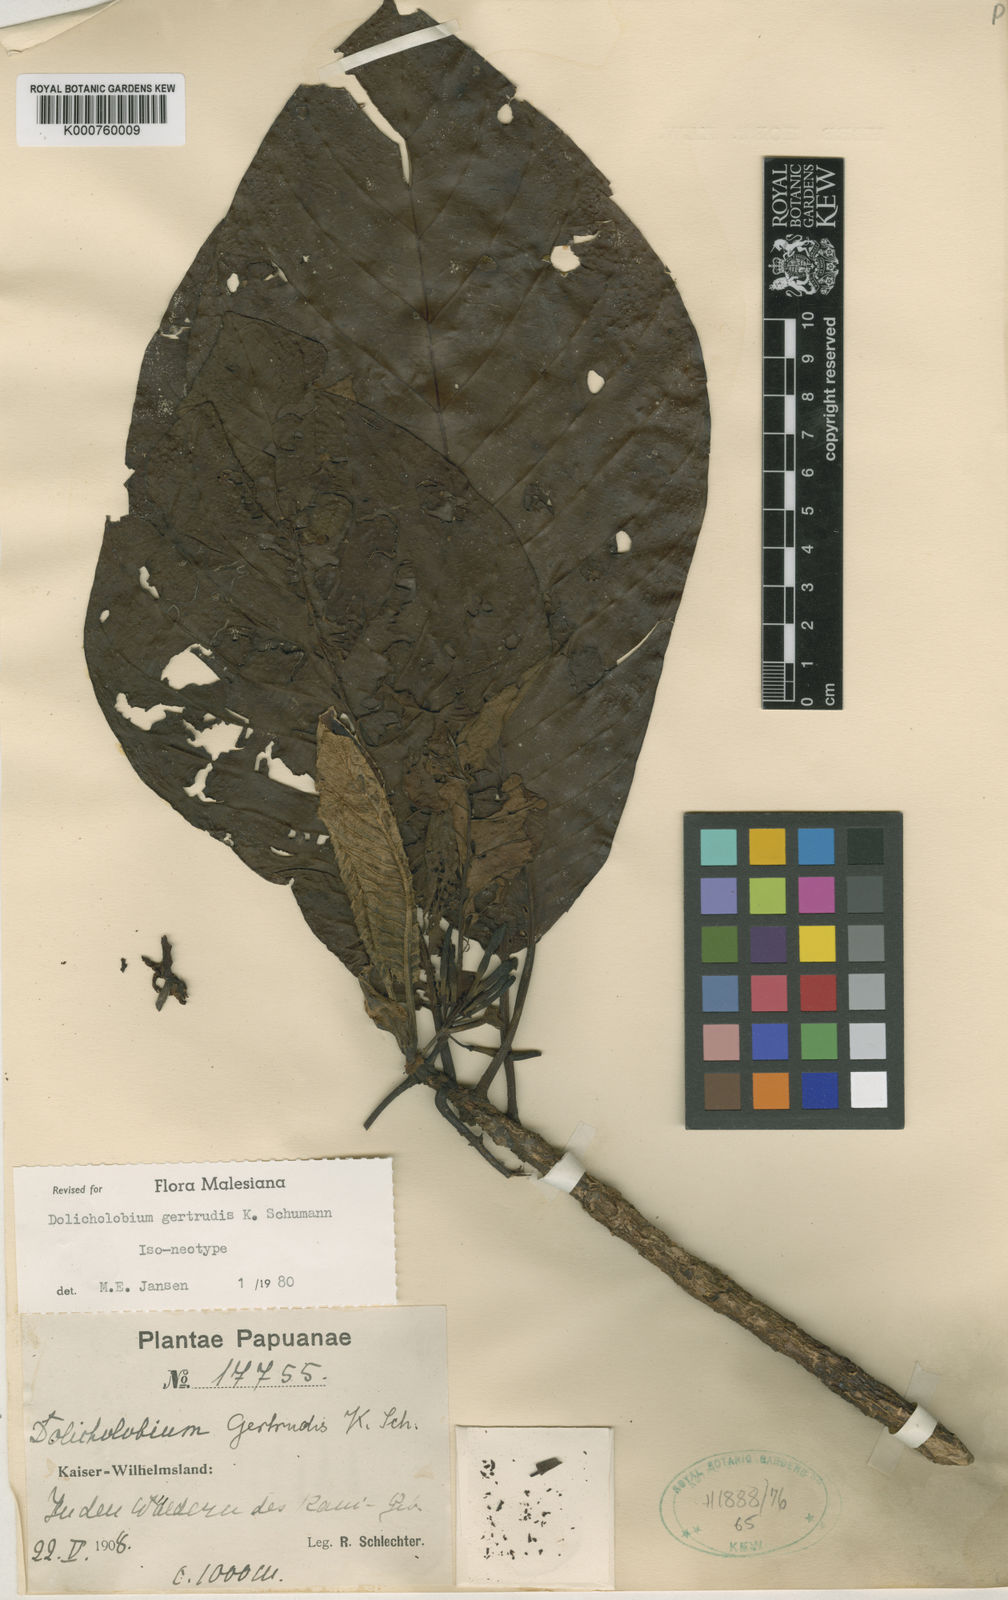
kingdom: Plantae
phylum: Tracheophyta
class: Magnoliopsida
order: Gentianales
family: Rubiaceae
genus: Dolicholobium
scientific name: Dolicholobium gertrudis
